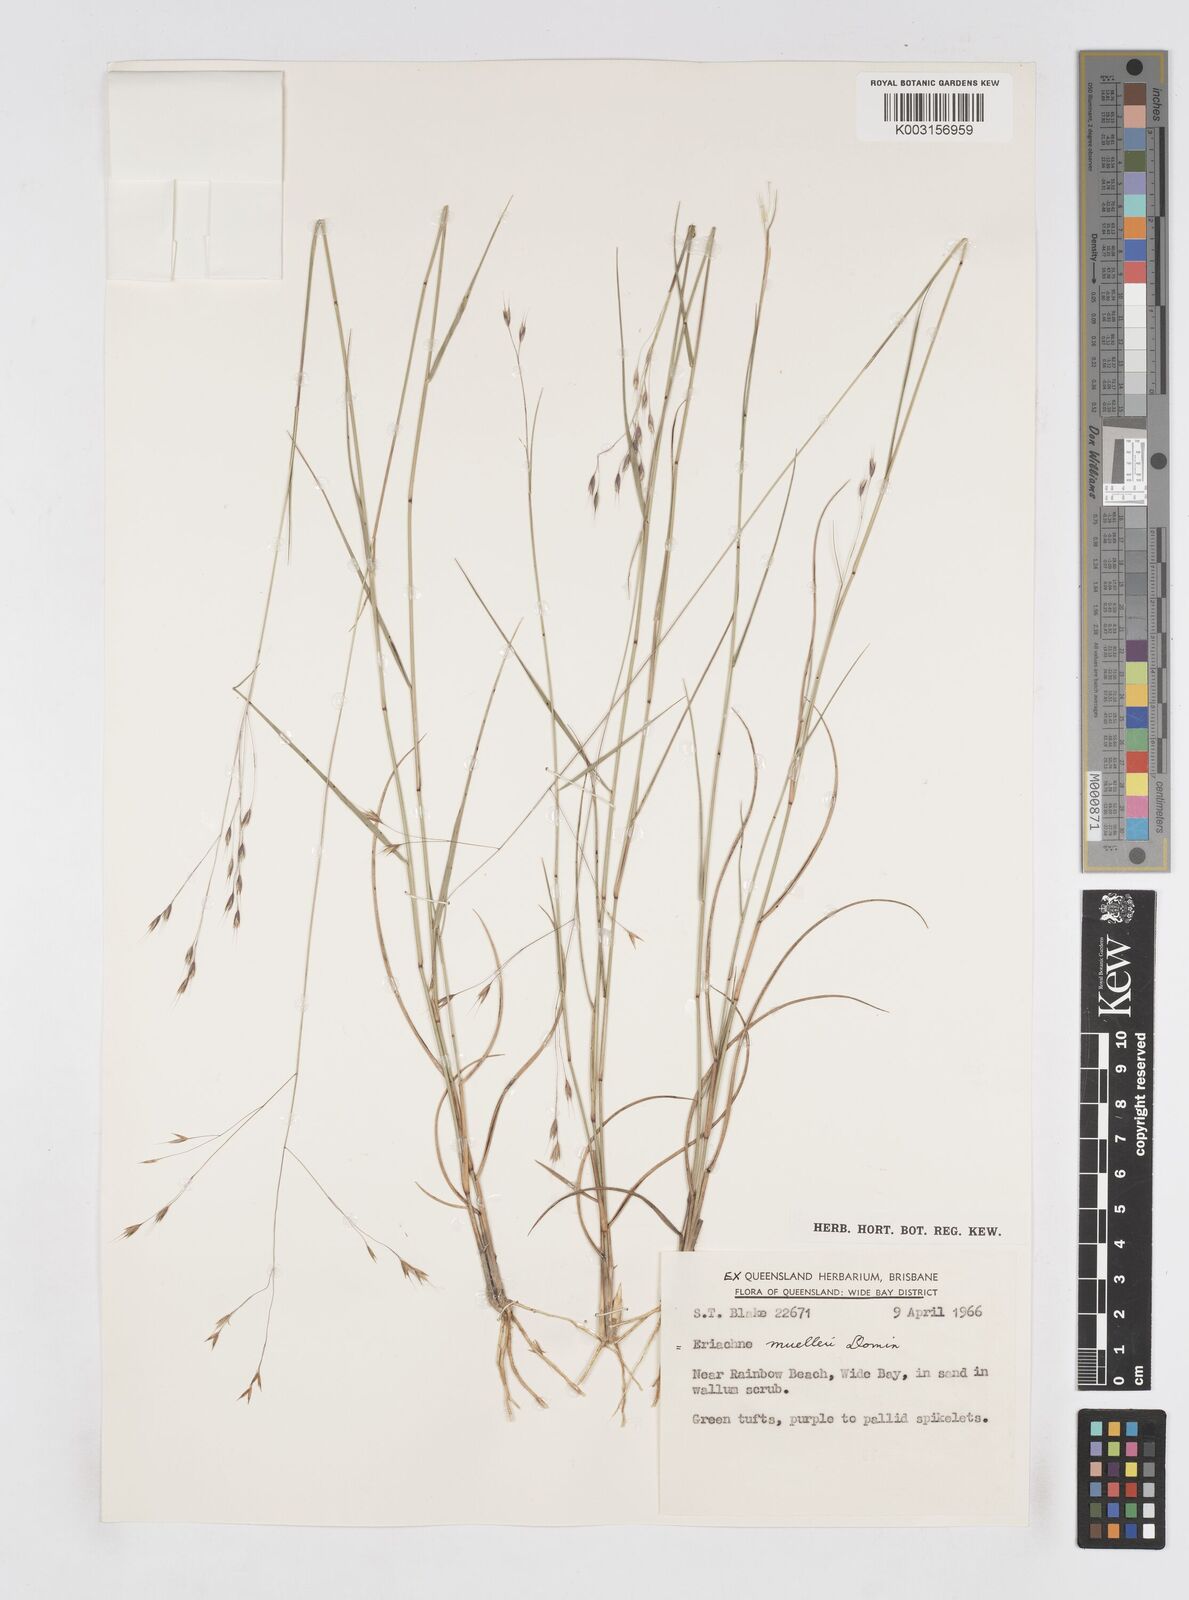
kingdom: Plantae
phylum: Tracheophyta
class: Liliopsida
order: Poales
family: Poaceae
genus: Eriachne
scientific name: Eriachne pallescens
